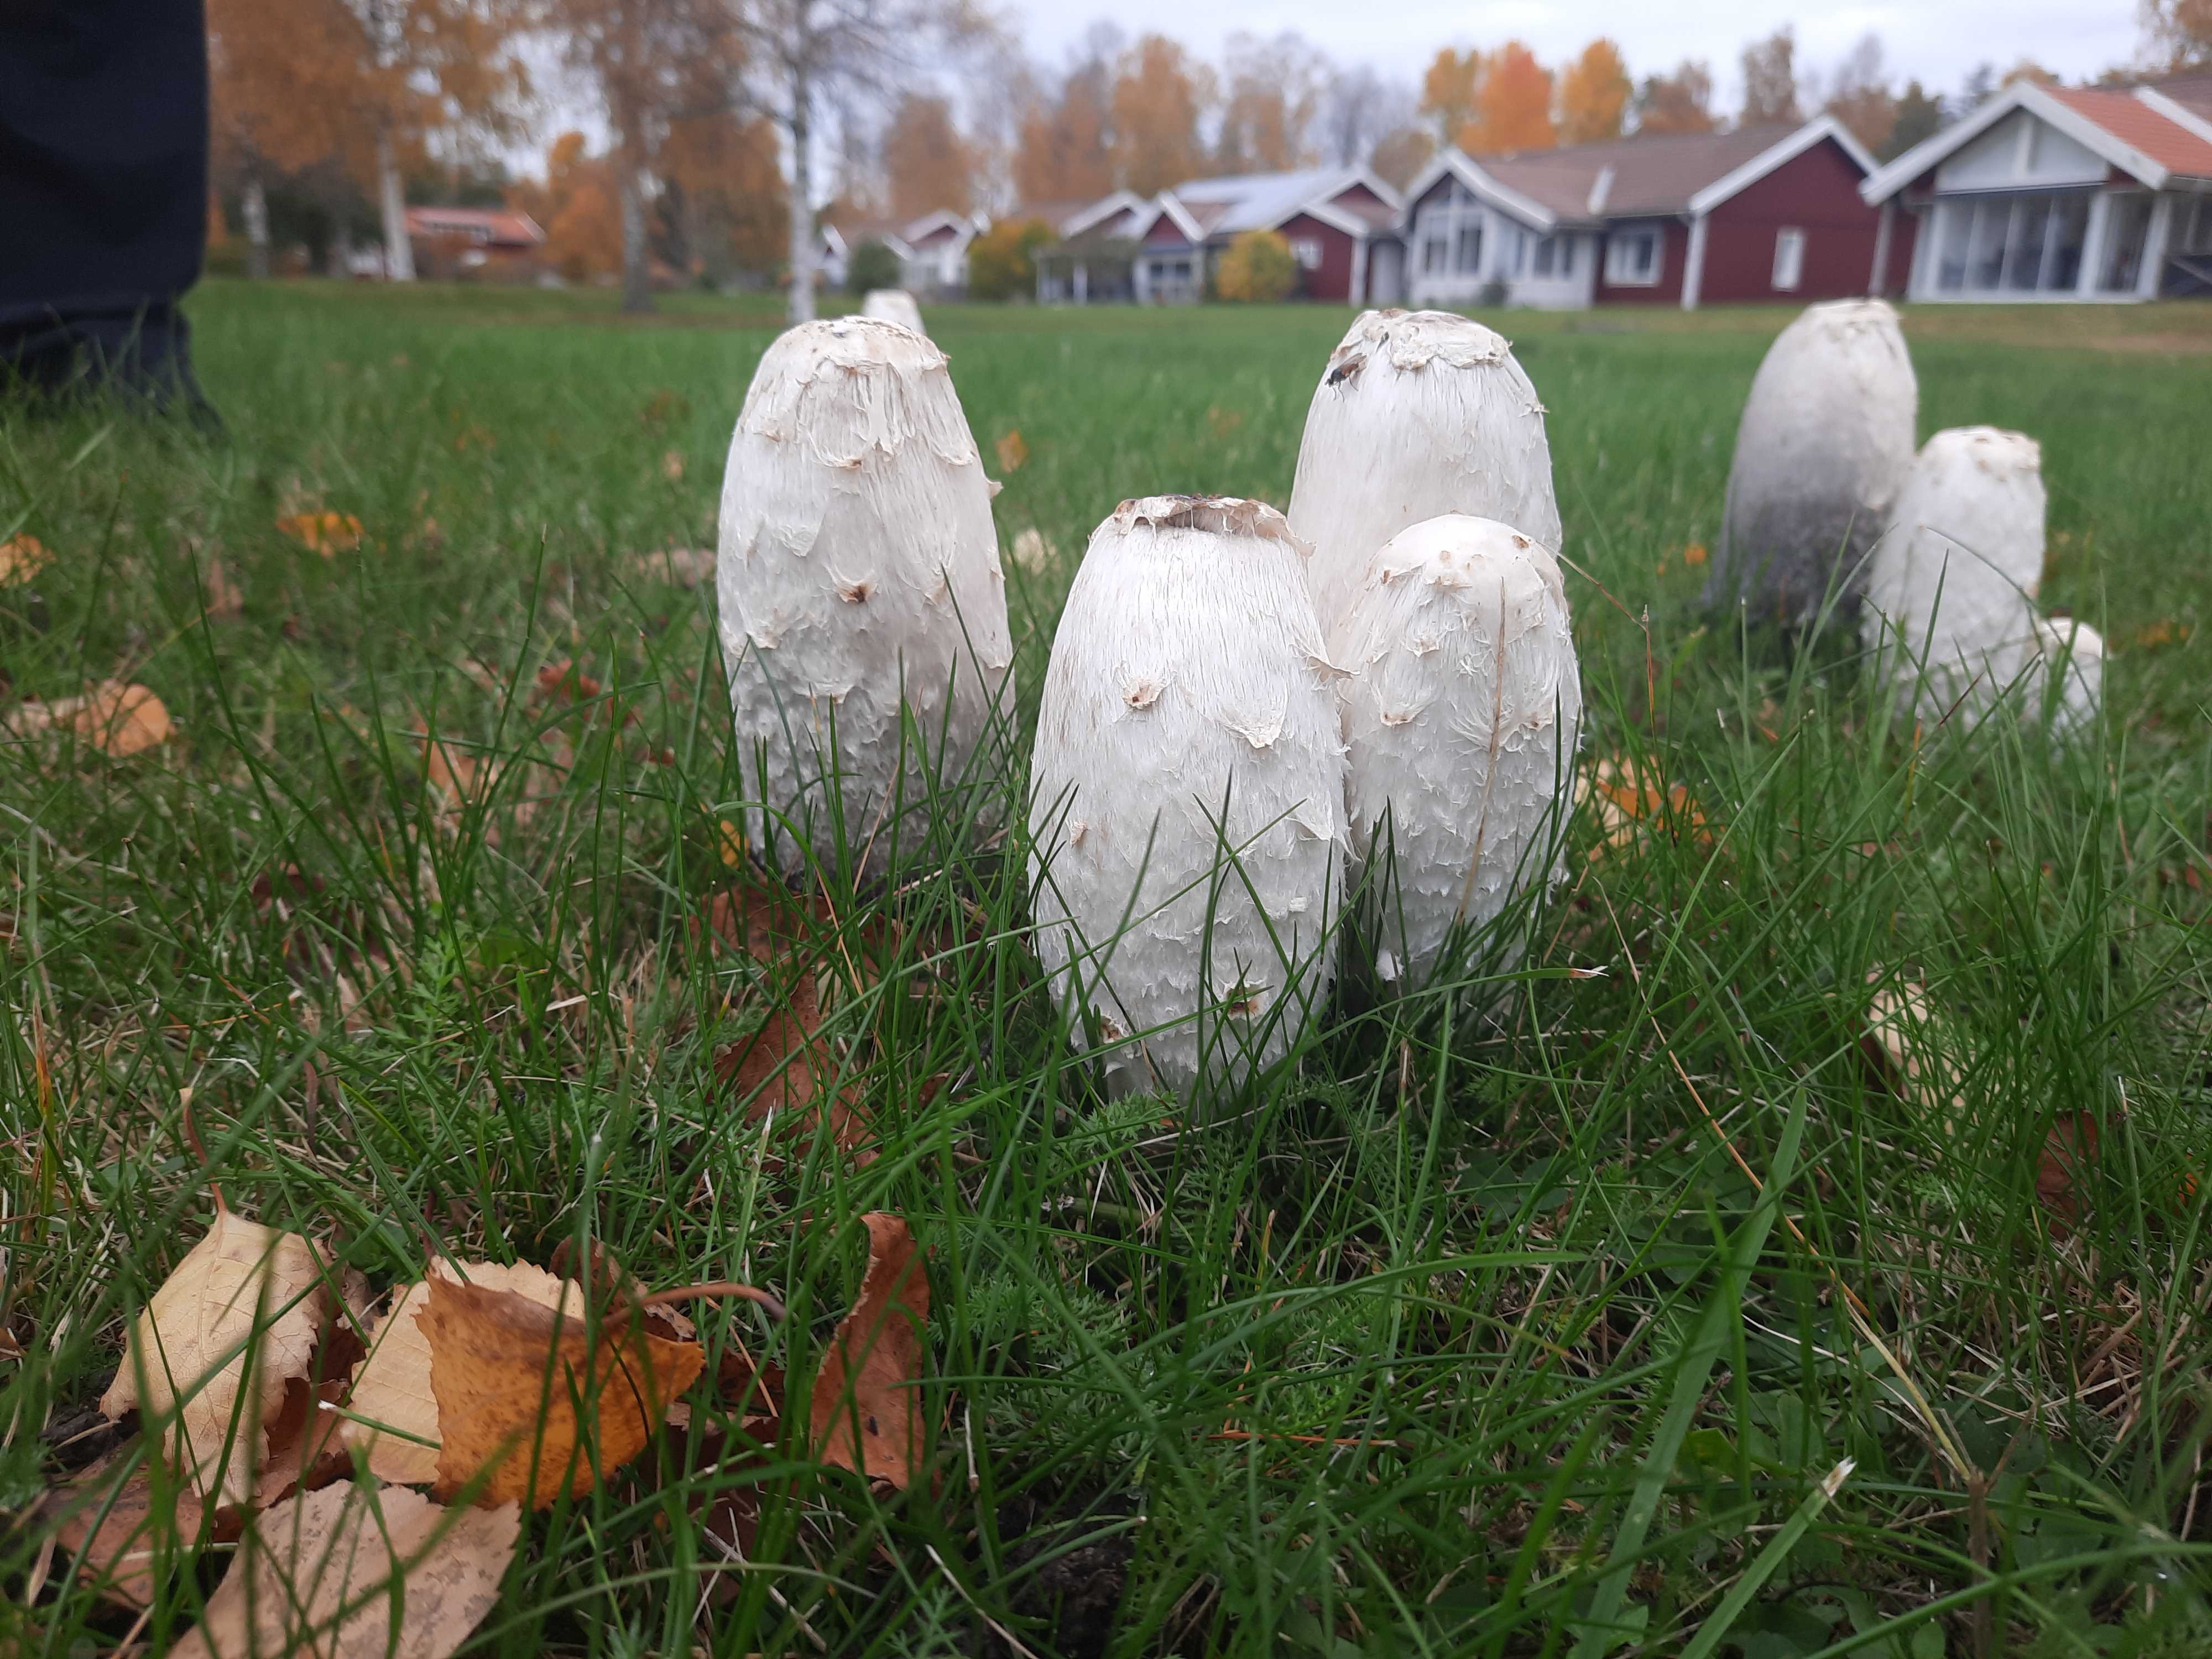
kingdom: Fungi
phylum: Basidiomycota
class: Agaricomycetes
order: Agaricales
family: Agaricaceae
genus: Coprinus
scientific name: Coprinus comatus
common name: stor parykhat
